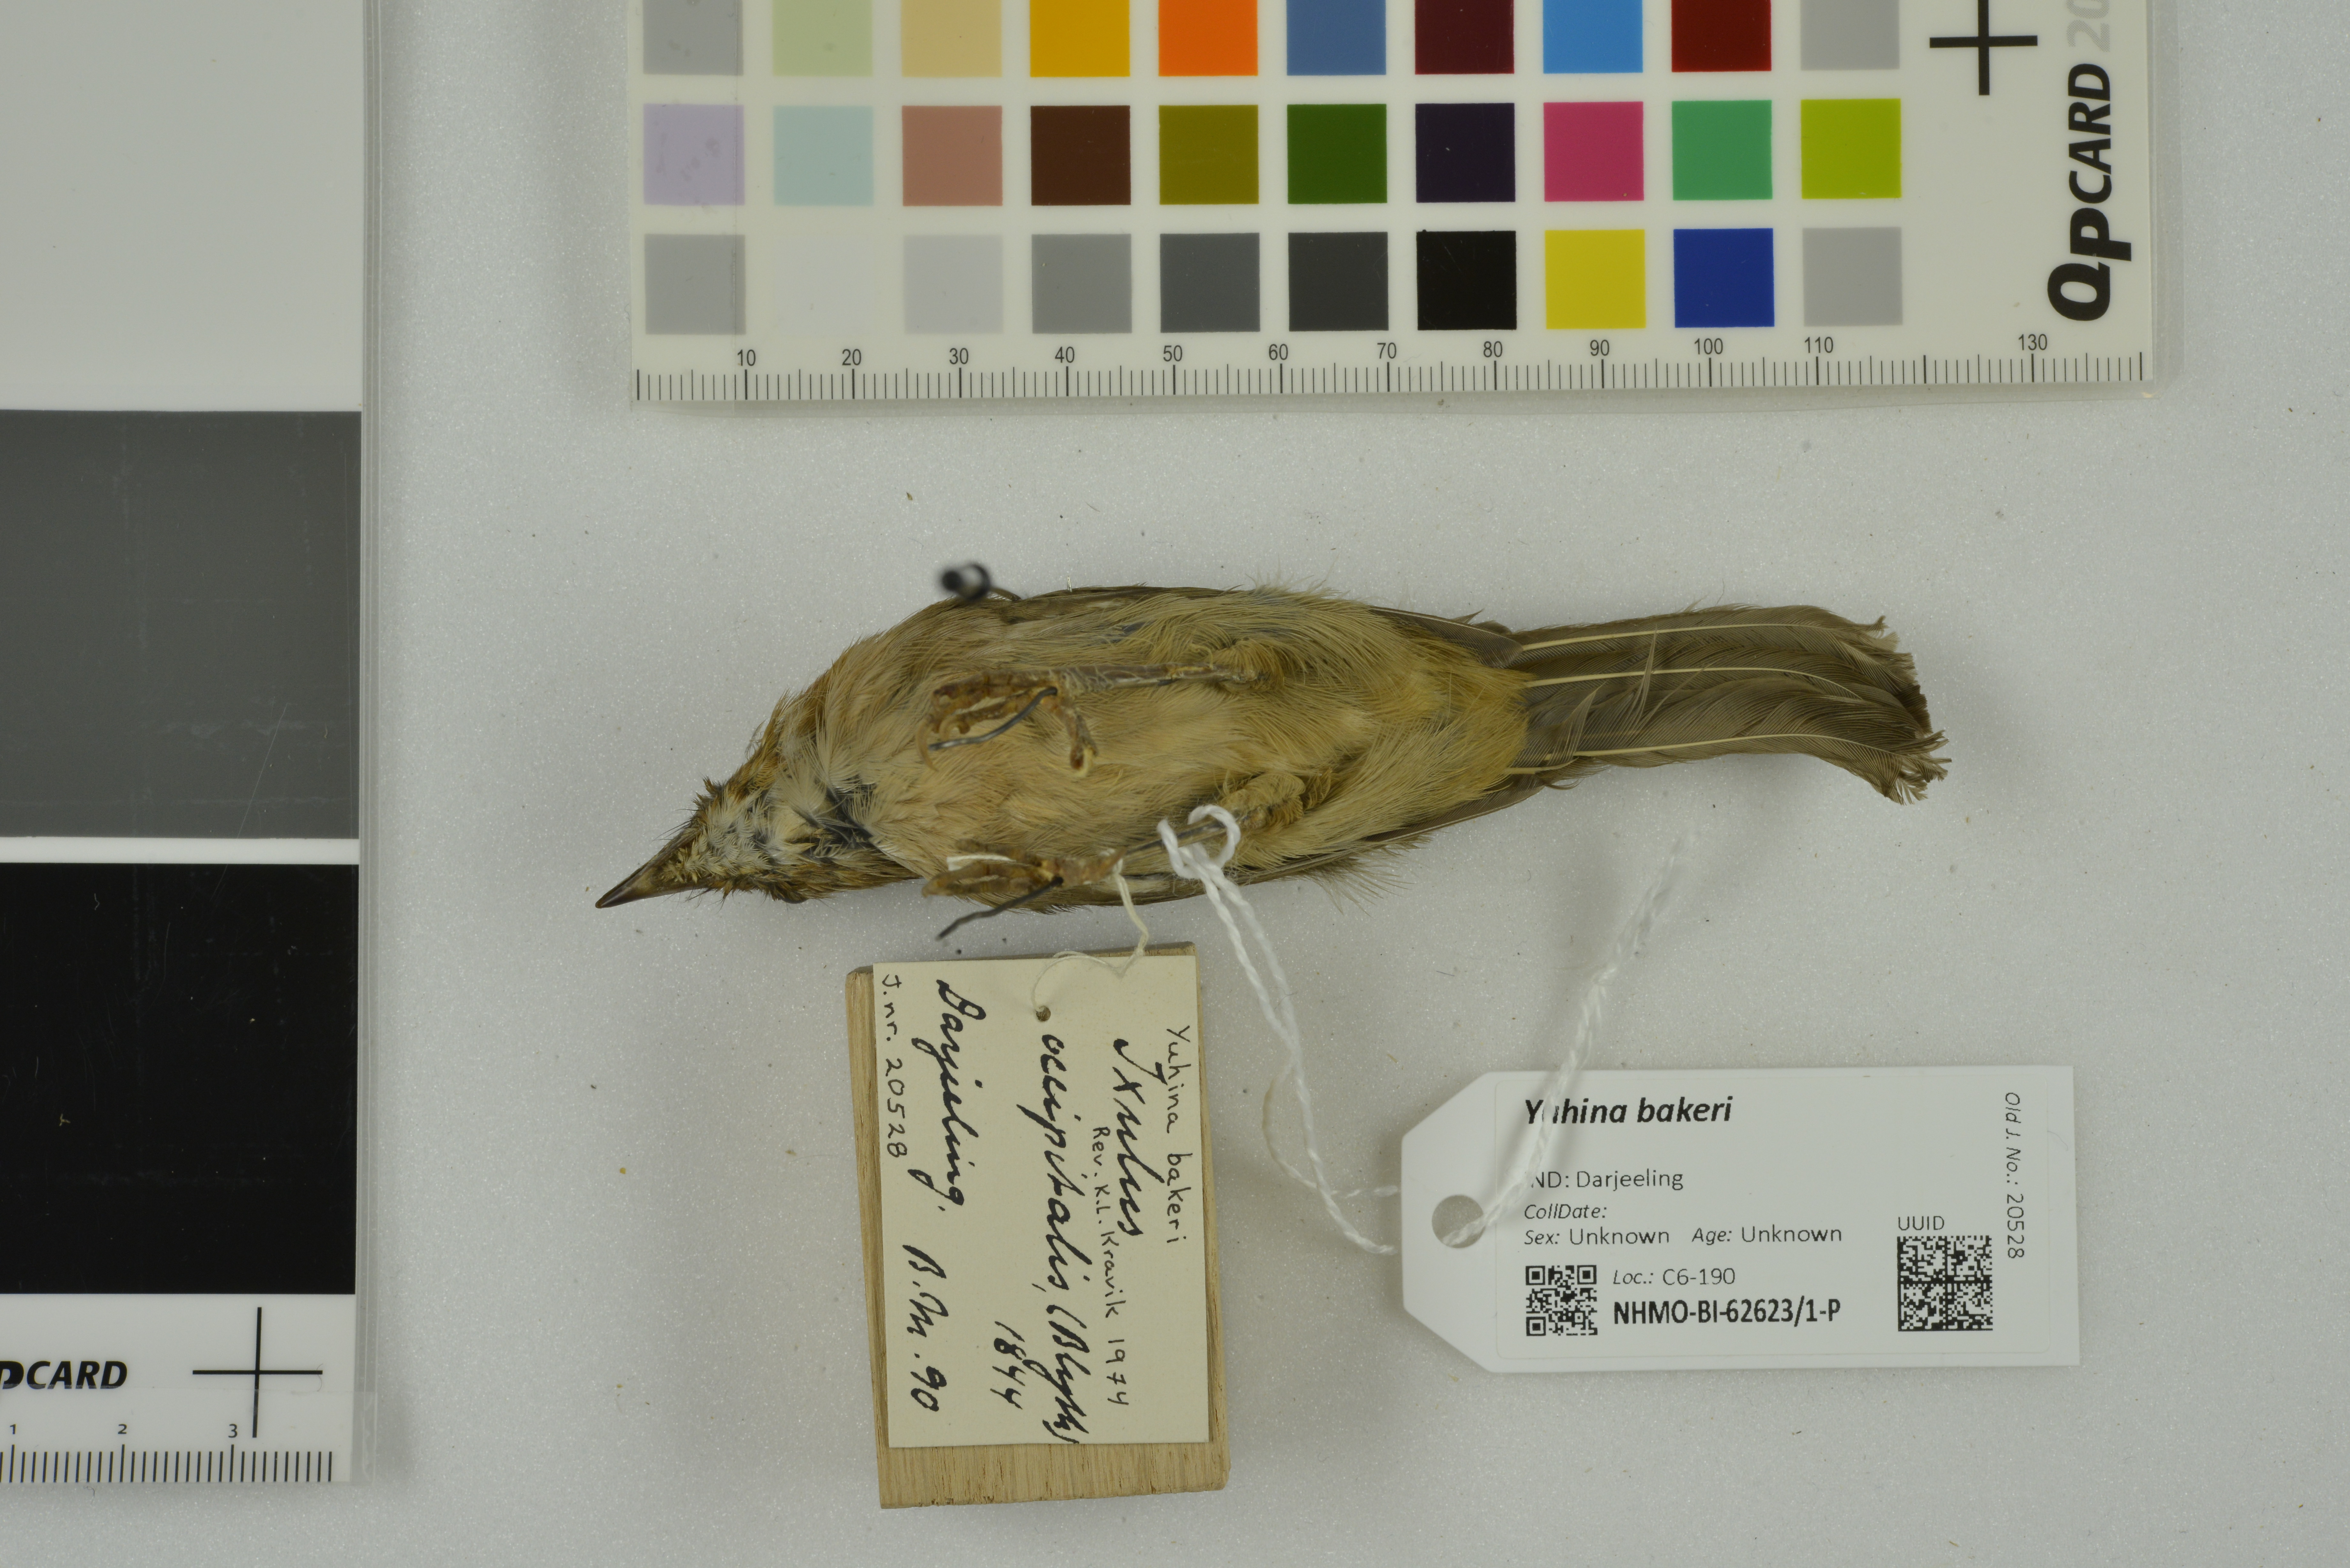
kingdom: Animalia
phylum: Chordata
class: Aves
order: Passeriformes
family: Zosteropidae
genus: Yuhina
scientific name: Yuhina bakeri
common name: White-naped yuhina
